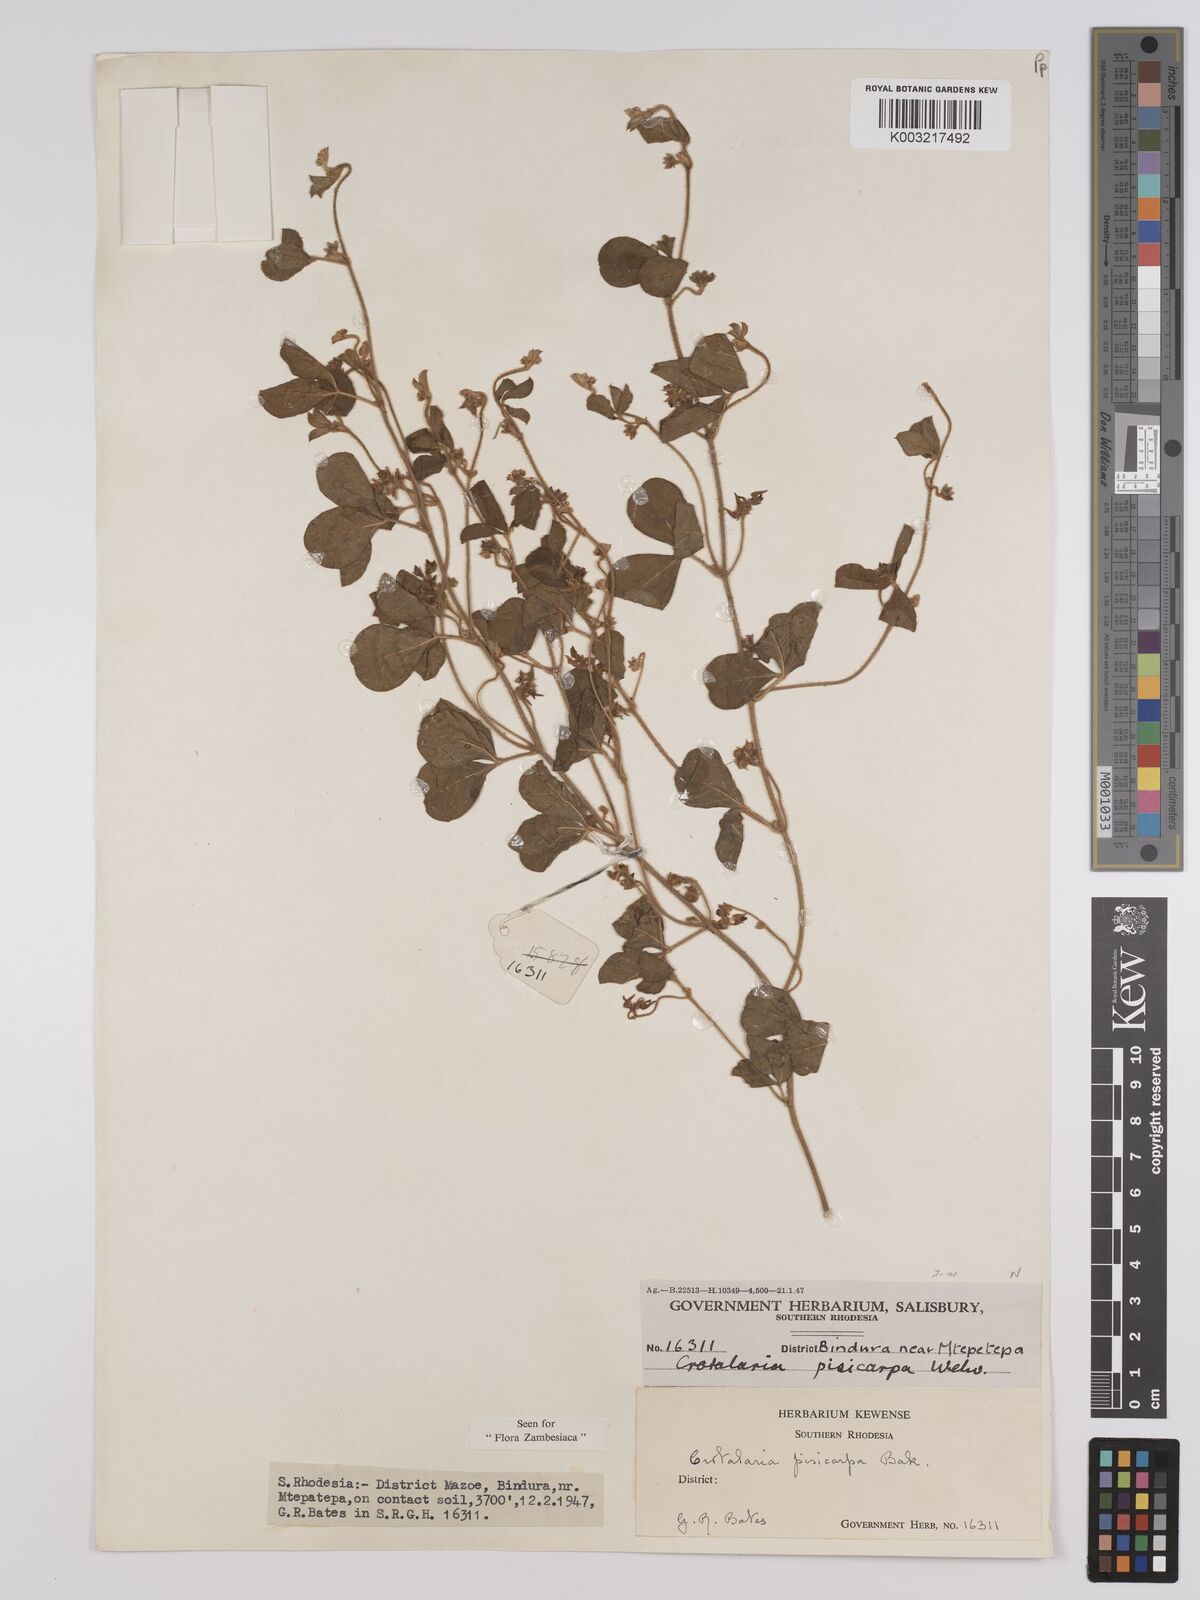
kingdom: Plantae
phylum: Tracheophyta
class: Magnoliopsida
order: Fabales
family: Fabaceae
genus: Crotalaria
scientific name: Crotalaria pisicarpa
